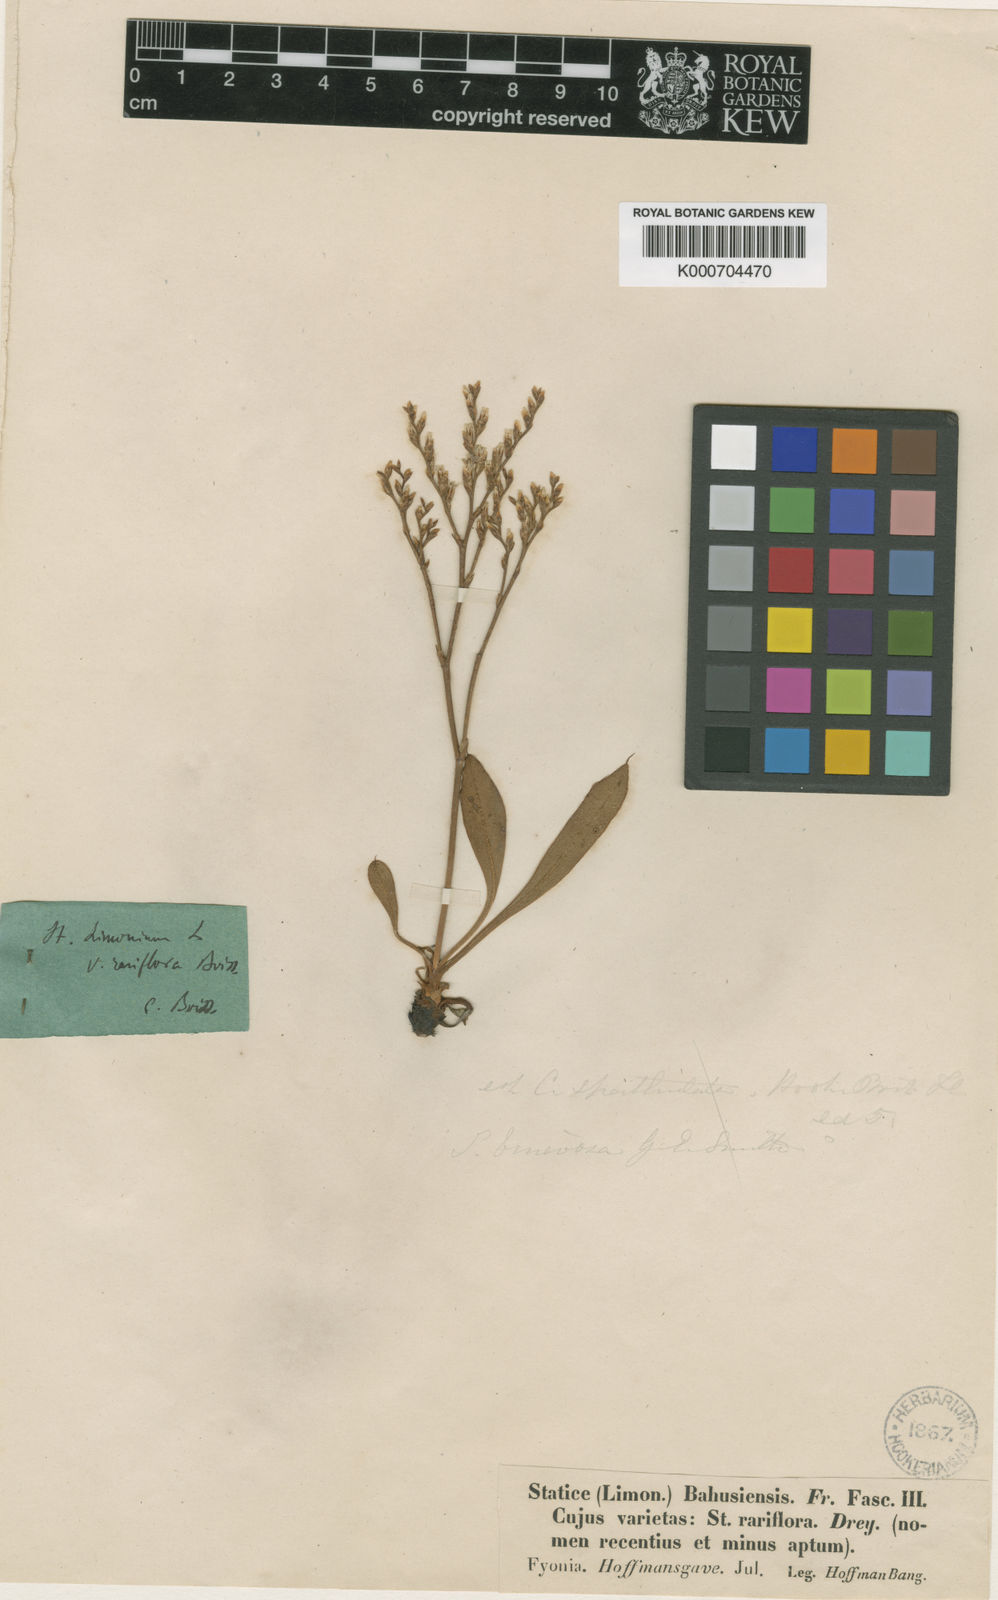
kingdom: Plantae
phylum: Tracheophyta
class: Magnoliopsida
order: Caryophyllales
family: Plumbaginaceae
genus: Limonium
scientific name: Limonium humile
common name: Lax-flowered sea-lavender
